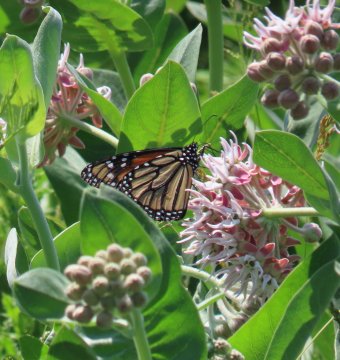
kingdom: Animalia
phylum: Arthropoda
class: Insecta
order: Lepidoptera
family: Nymphalidae
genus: Danaus
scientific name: Danaus plexippus
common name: Monarch
